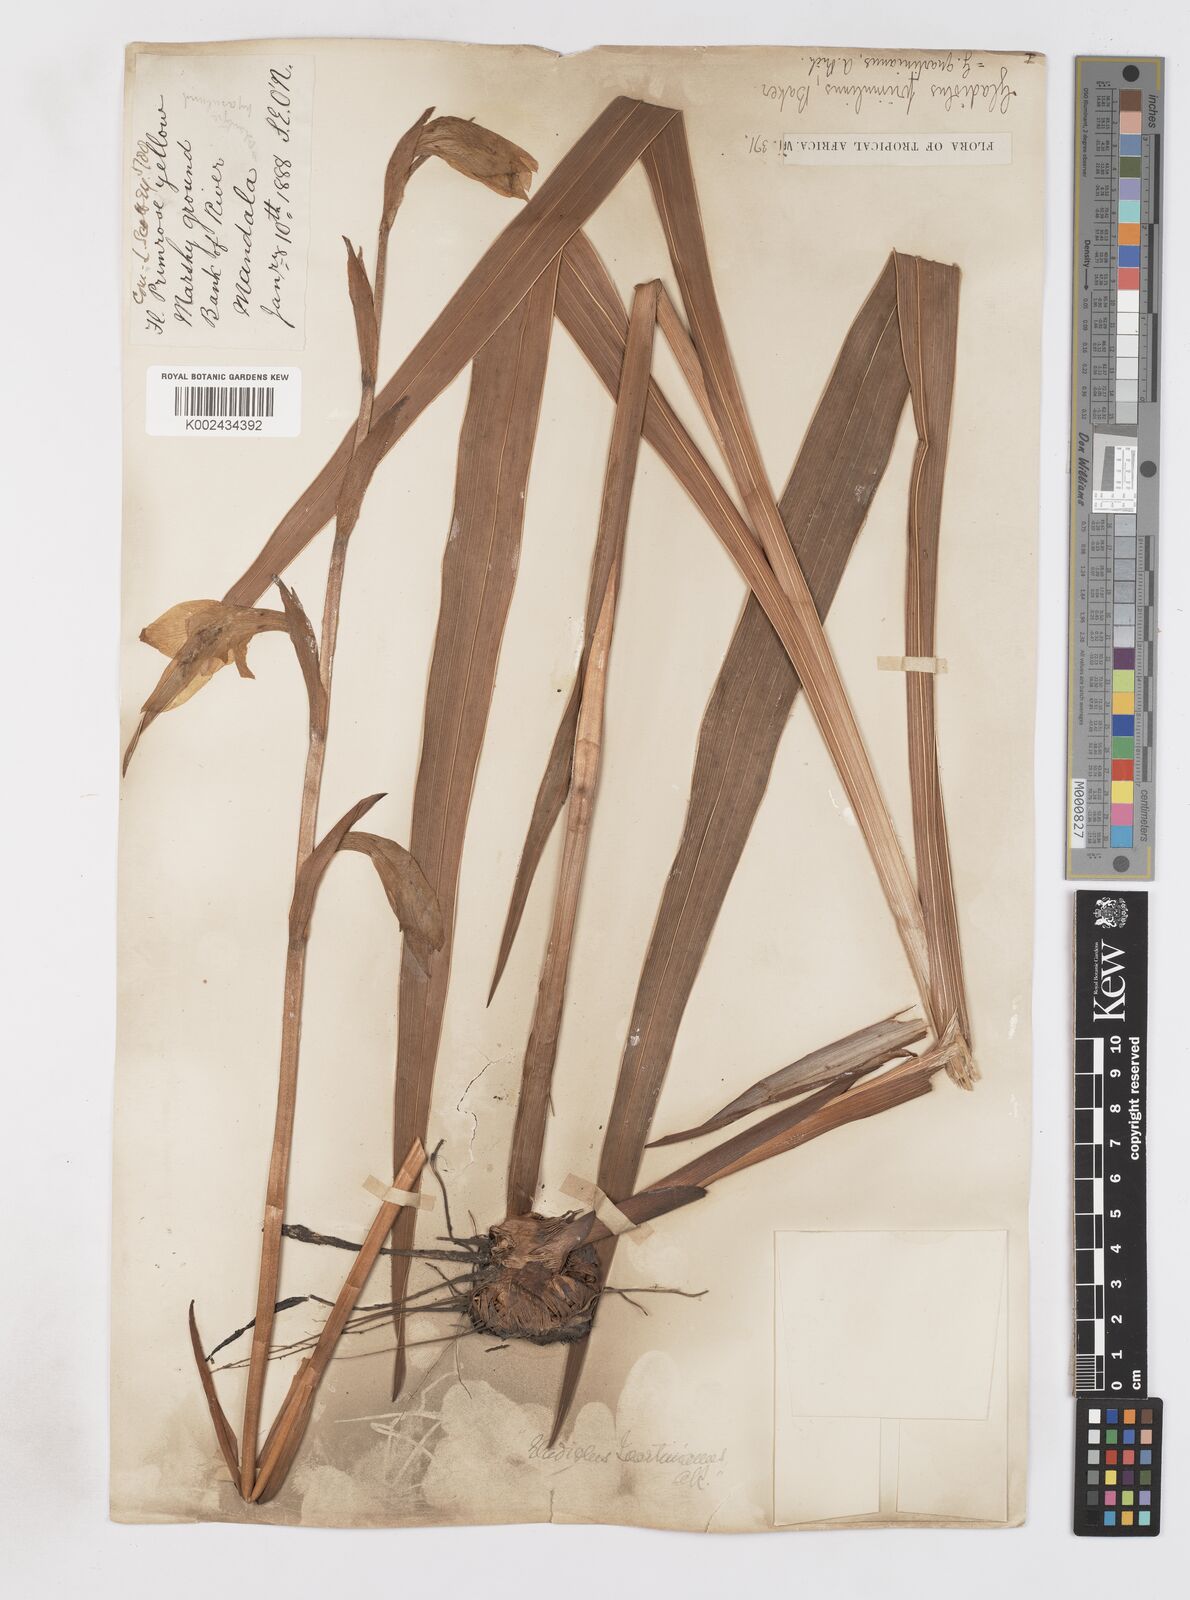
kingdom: Plantae
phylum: Tracheophyta
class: Liliopsida
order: Asparagales
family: Iridaceae
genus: Gladiolus
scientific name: Gladiolus dalenii
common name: Cornflag
